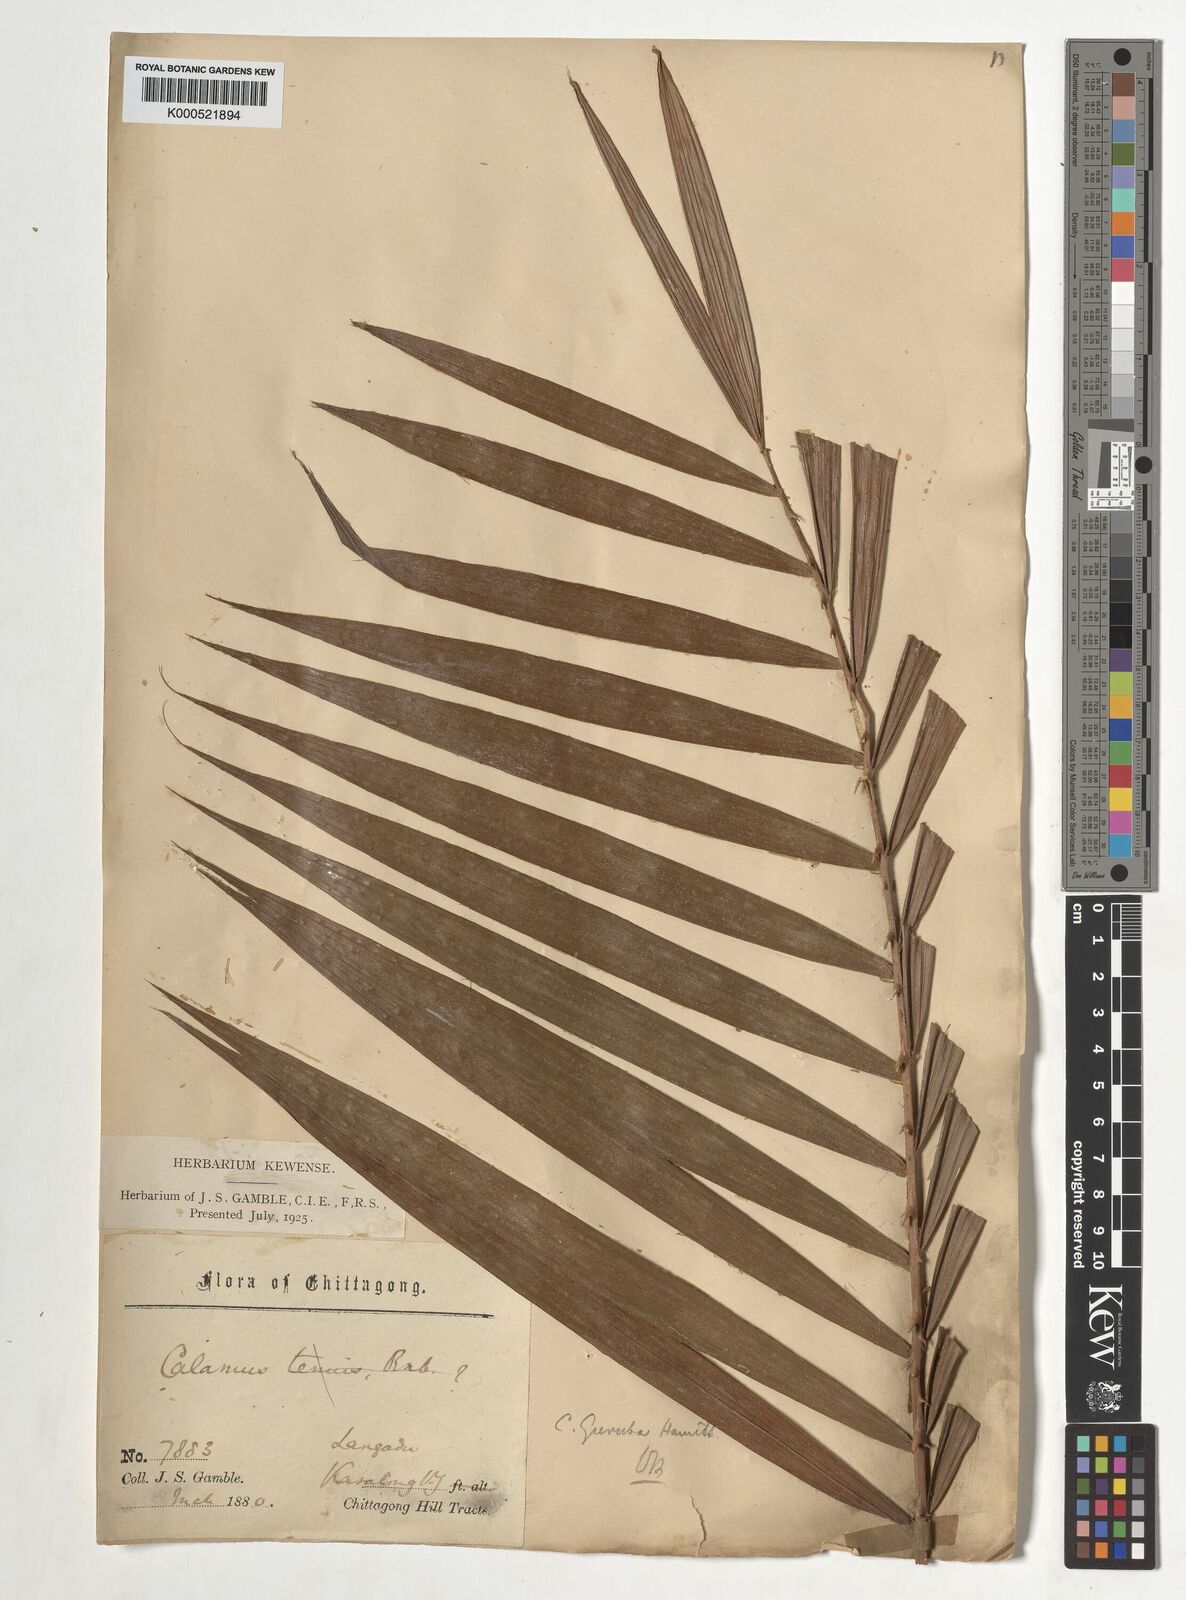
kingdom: Plantae
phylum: Tracheophyta
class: Liliopsida
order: Arecales
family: Arecaceae
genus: Calamus
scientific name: Calamus
